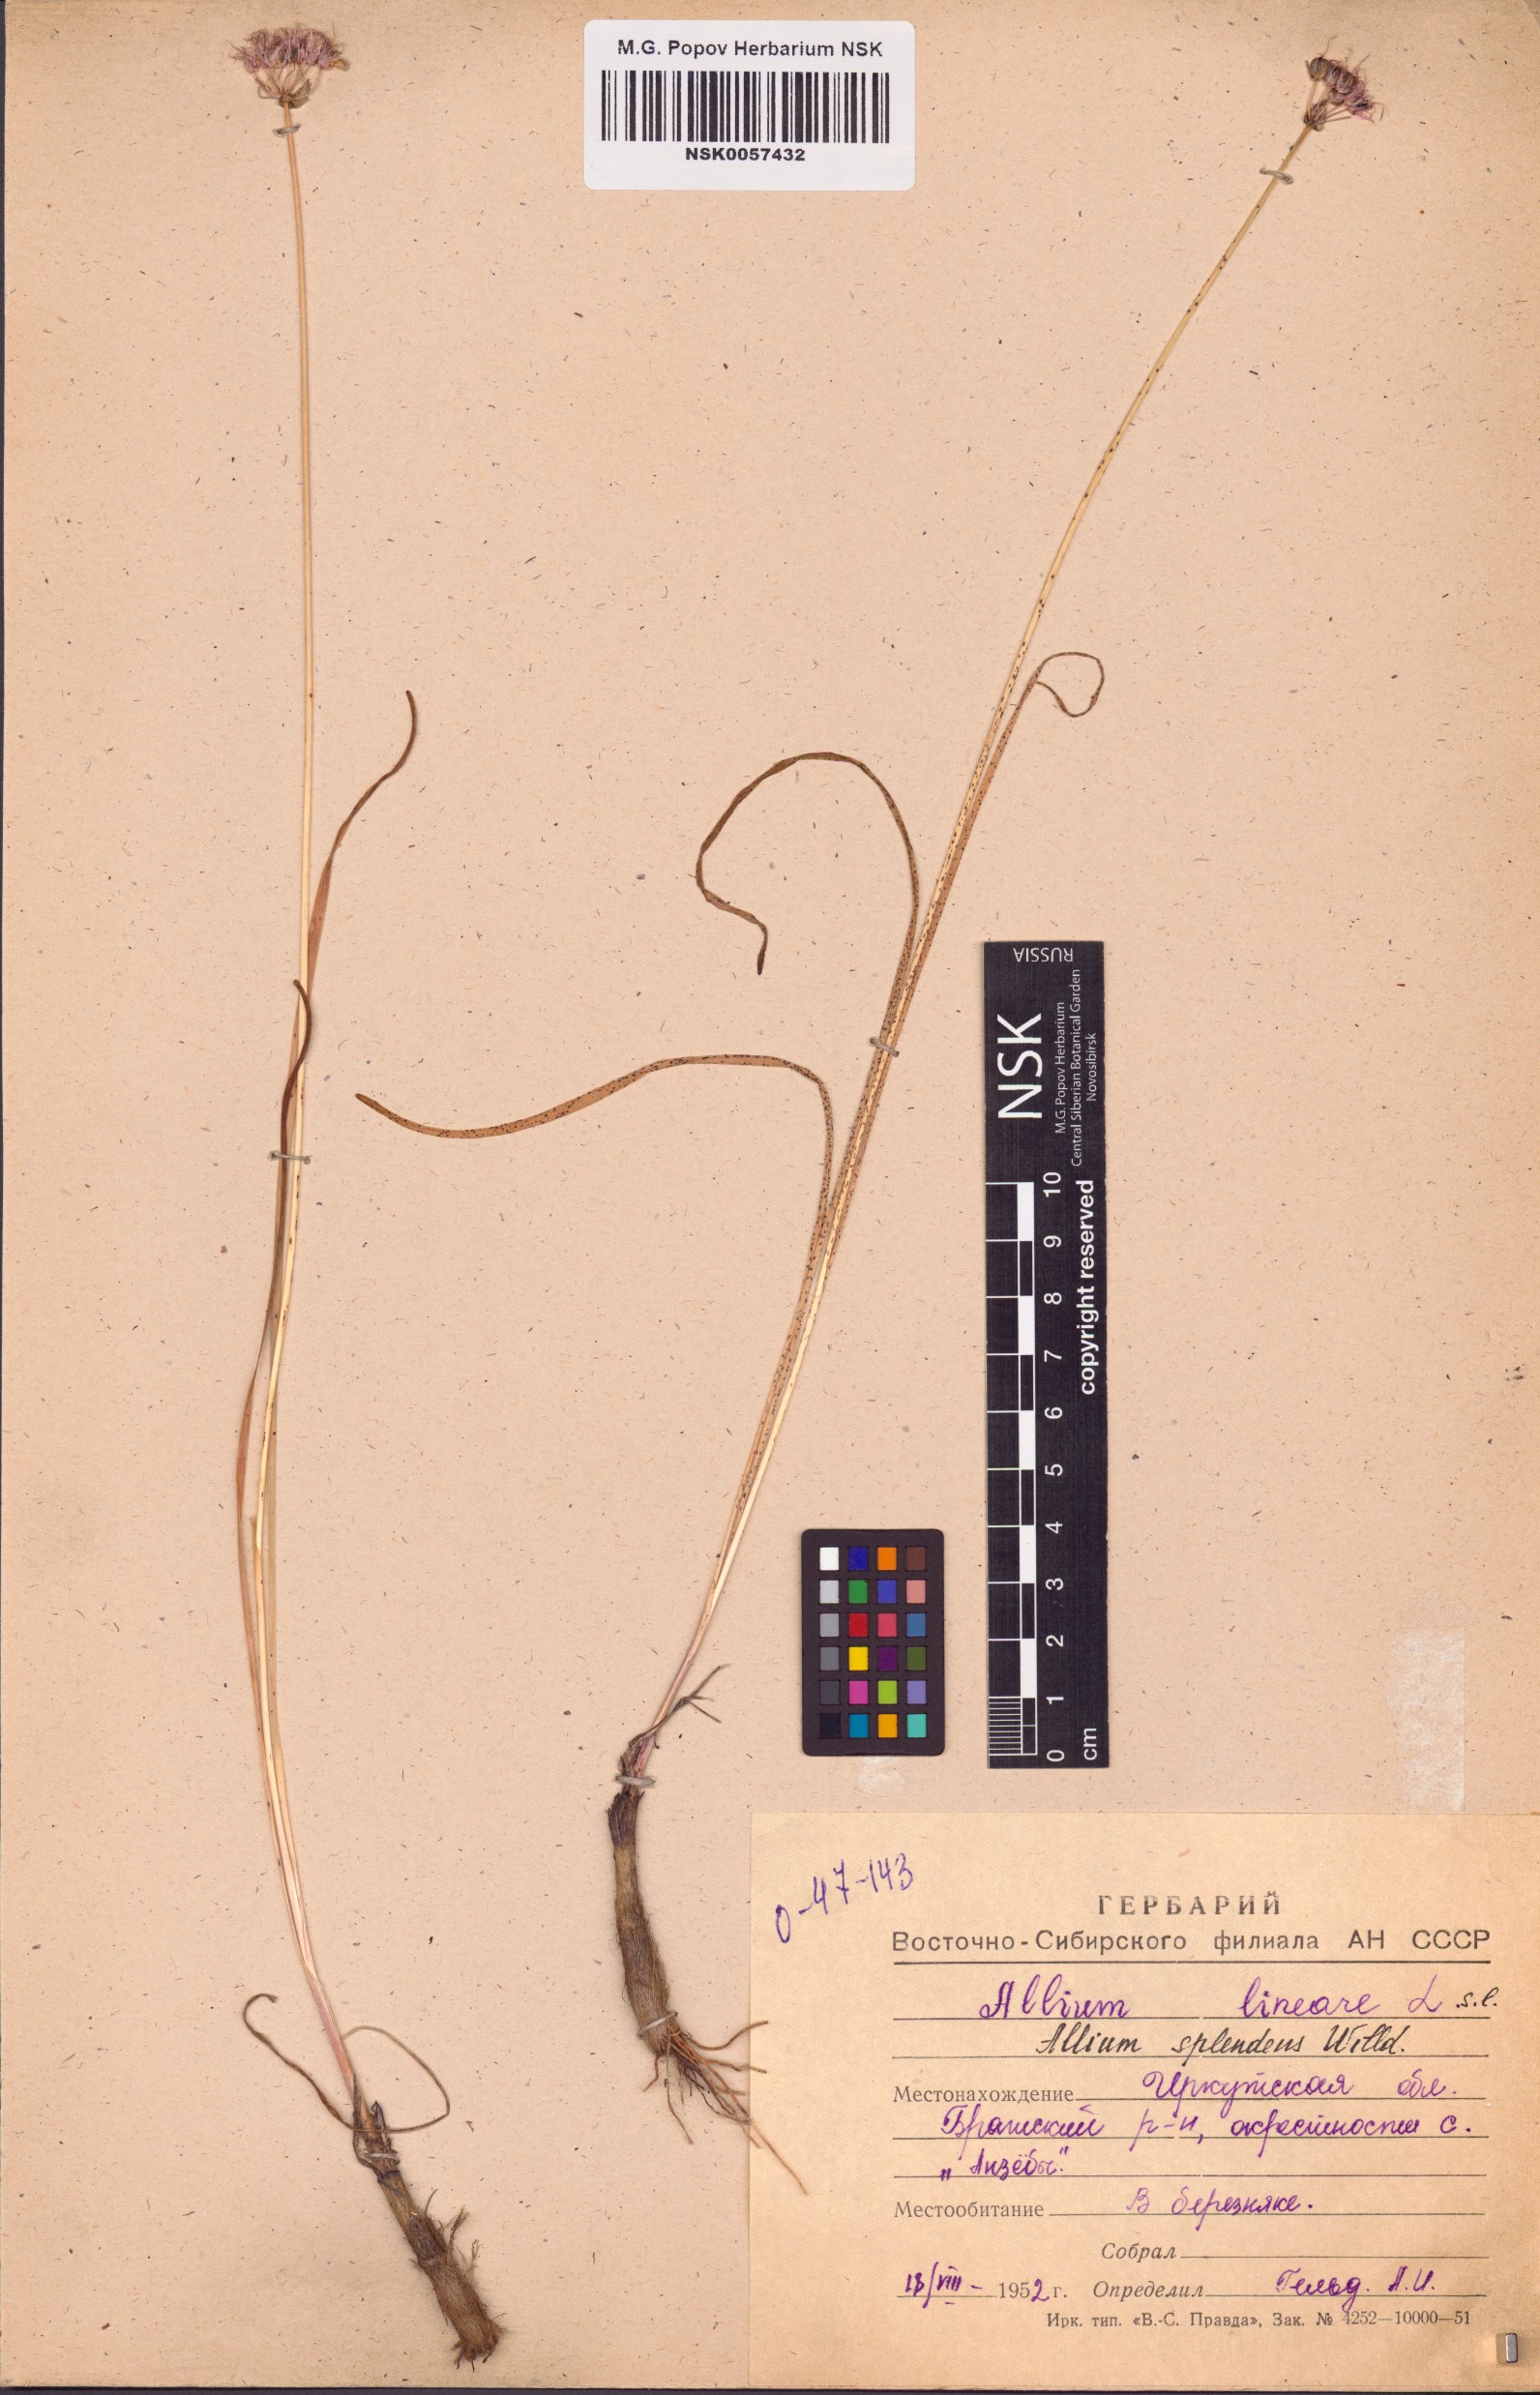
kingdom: Plantae
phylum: Tracheophyta
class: Liliopsida
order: Asparagales
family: Amaryllidaceae
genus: Allium
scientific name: Allium splendens
